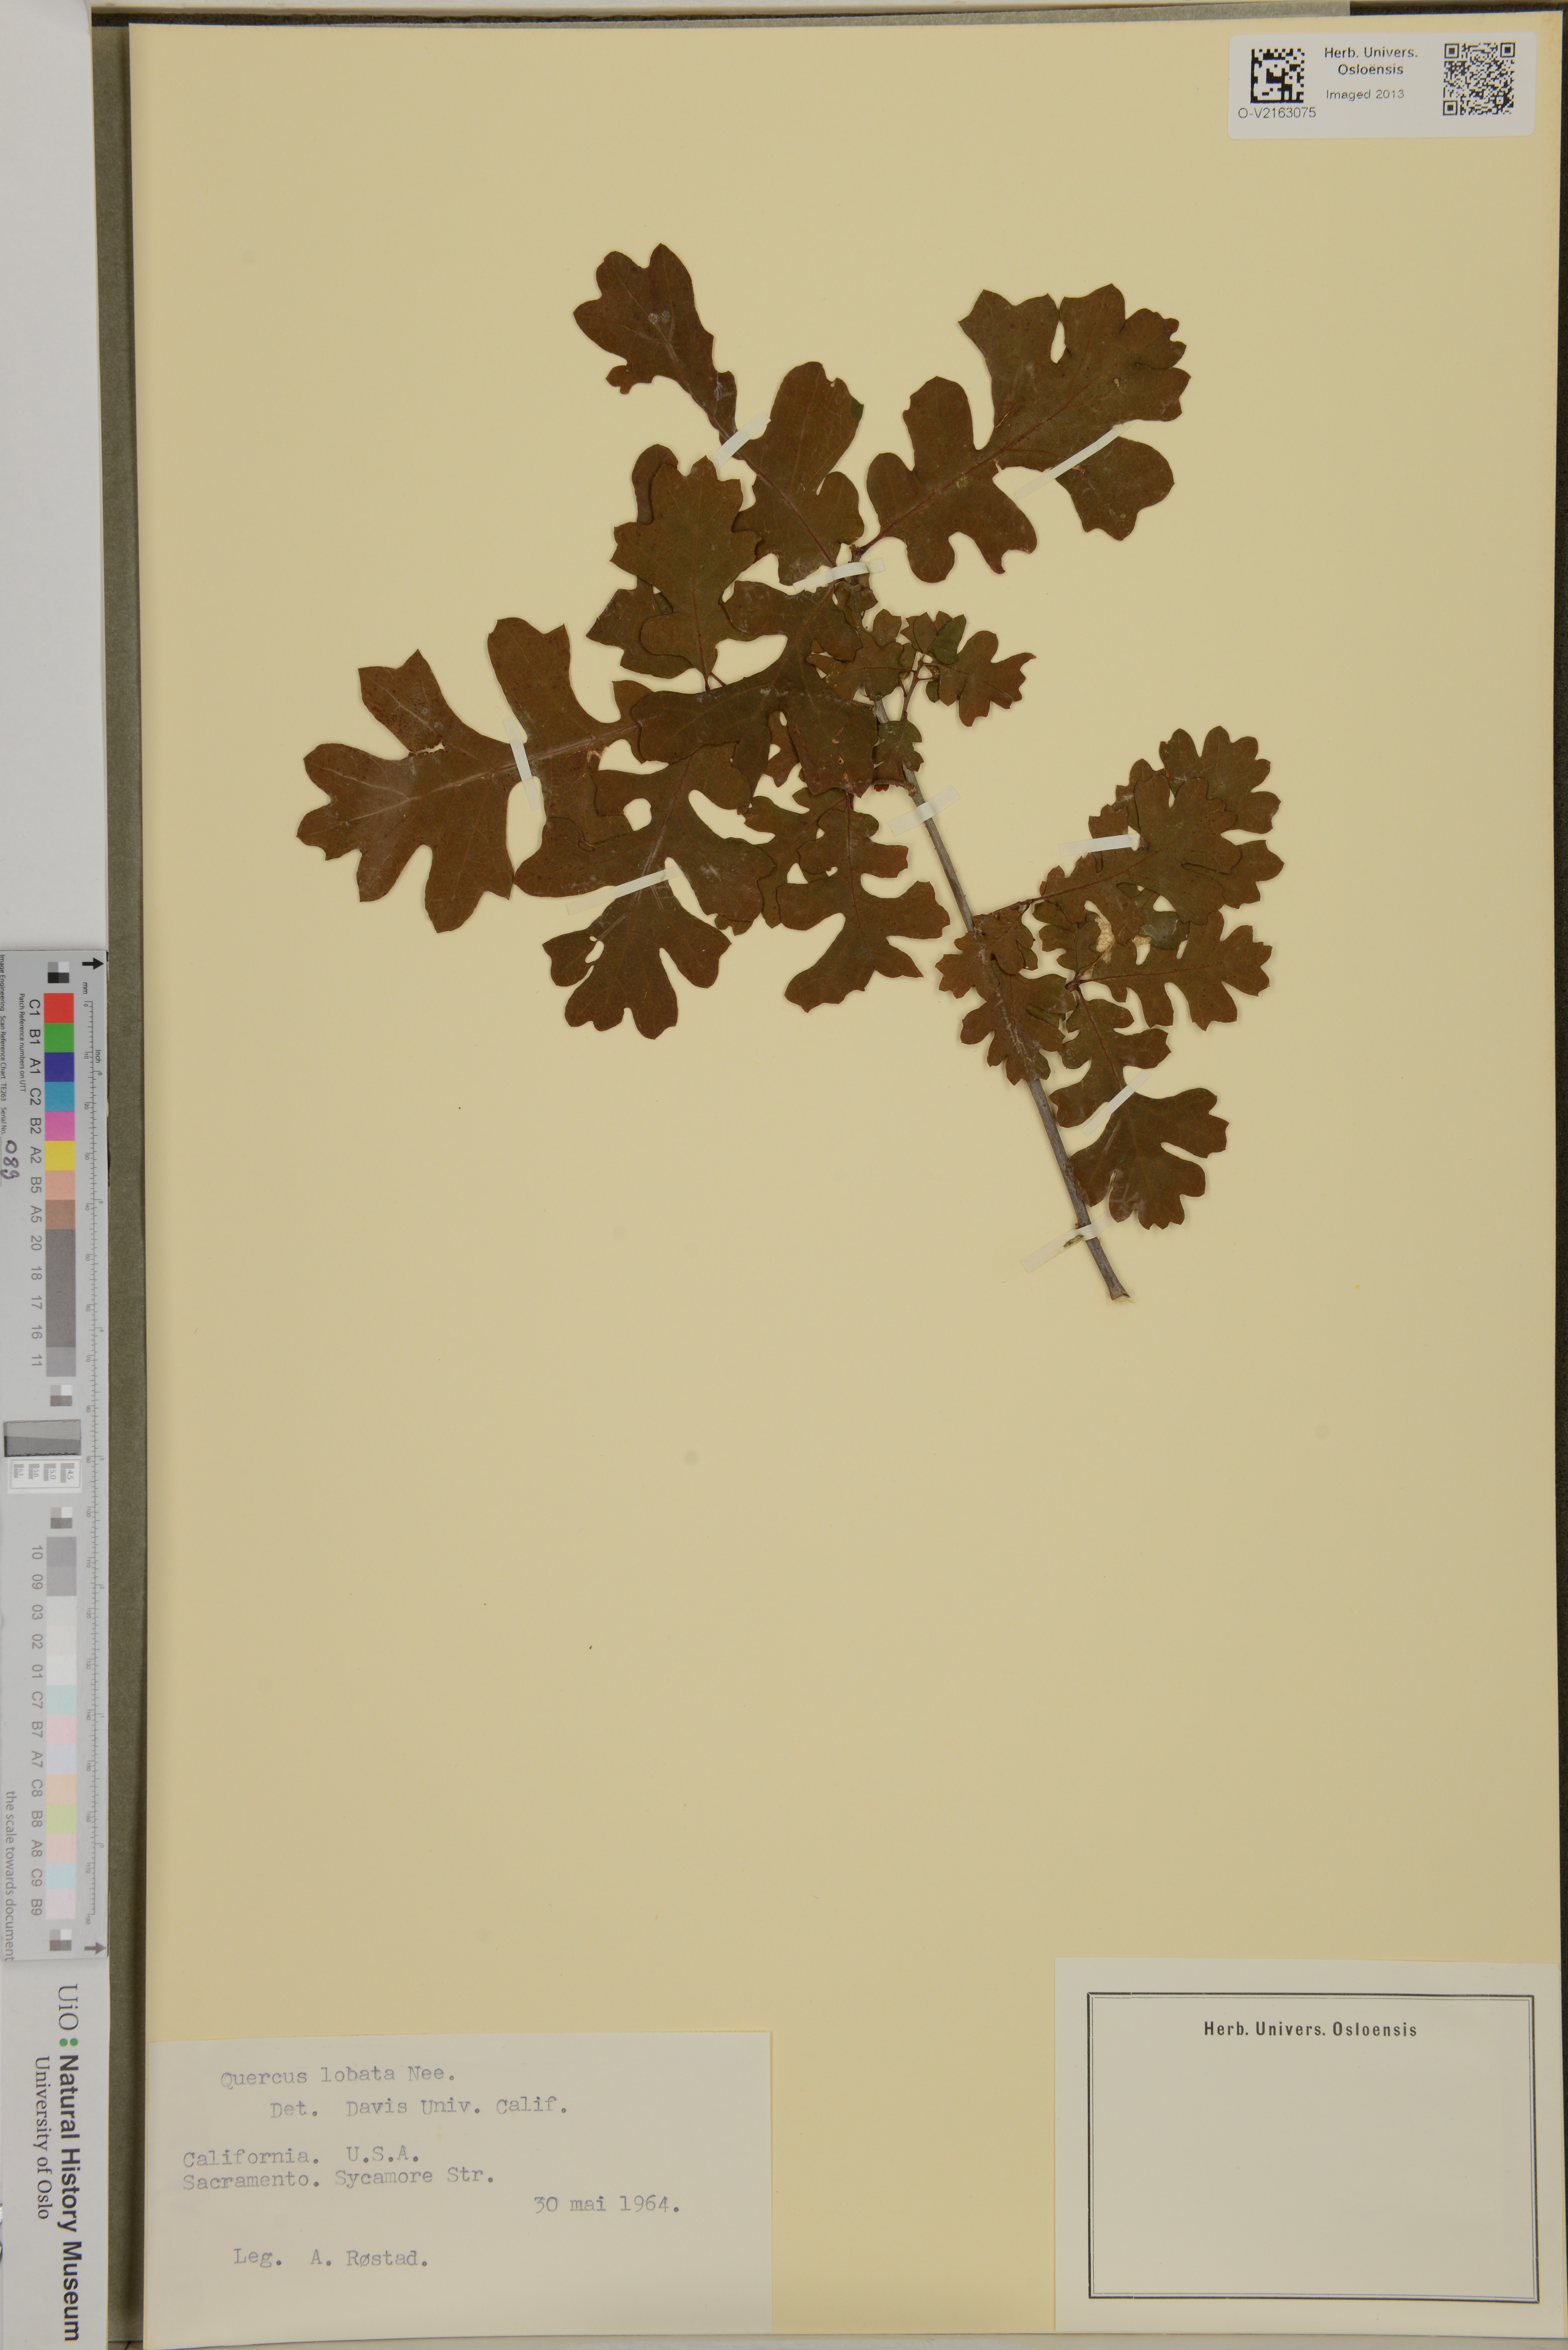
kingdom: Plantae
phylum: Tracheophyta
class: Magnoliopsida
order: Fagales
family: Fagaceae
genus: Quercus
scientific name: Quercus lobata
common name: Valley oak
